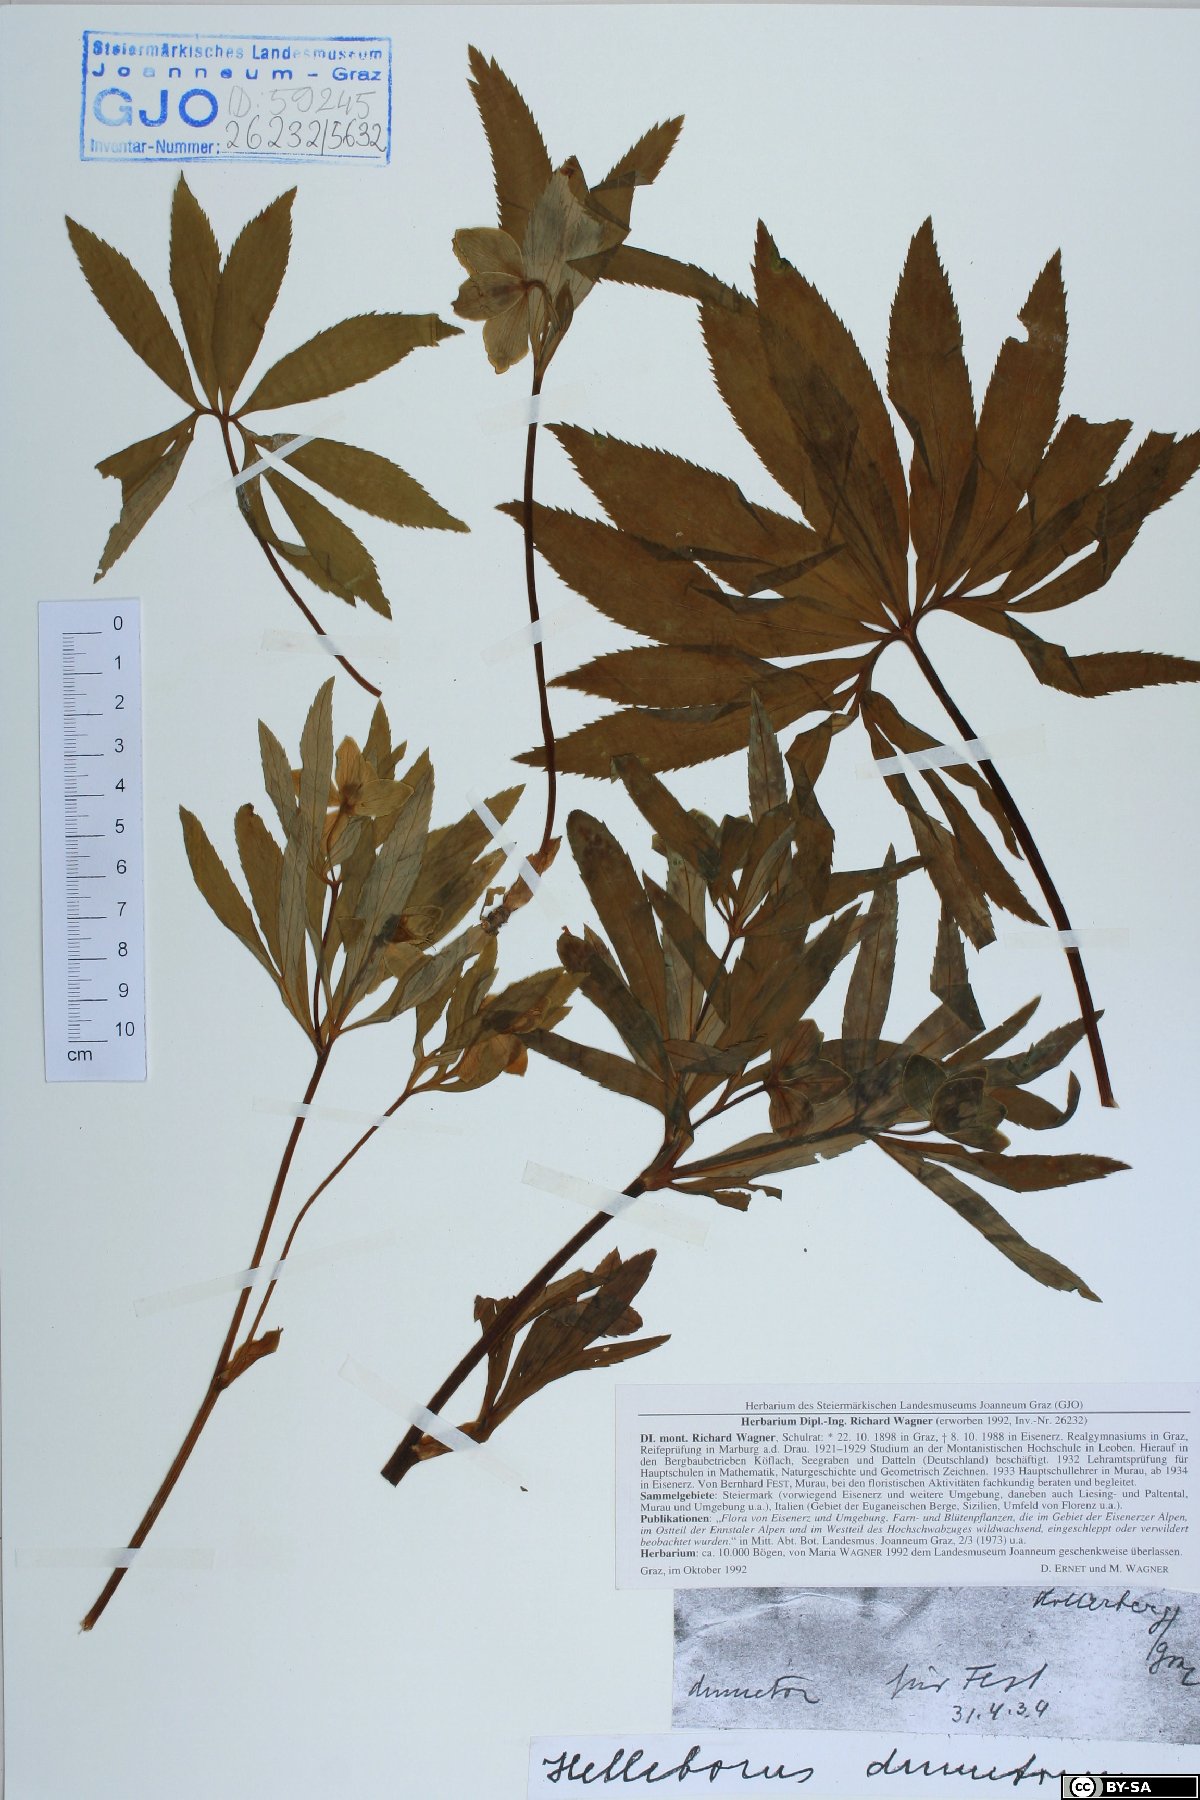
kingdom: Plantae
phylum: Tracheophyta
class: Magnoliopsida
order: Ranunculales
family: Ranunculaceae
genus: Helleborus
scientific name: Helleborus dumetorum
